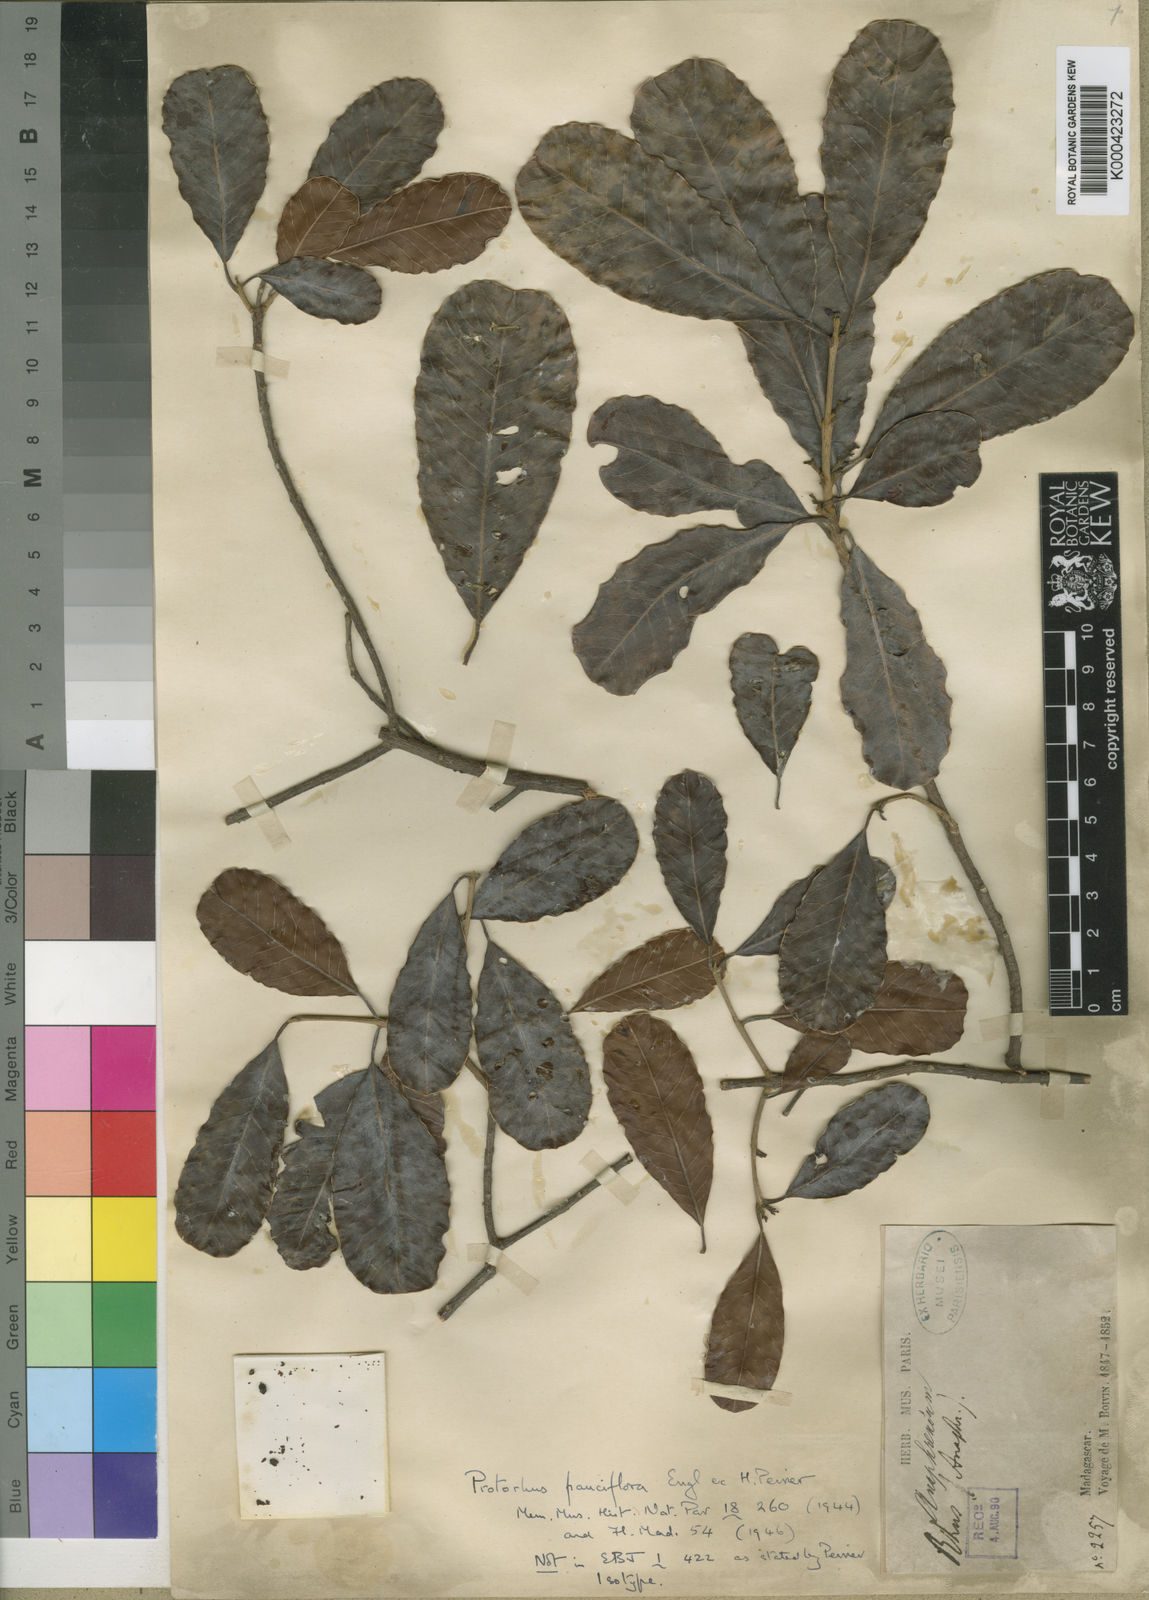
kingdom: Plantae
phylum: Tracheophyta
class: Magnoliopsida
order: Sapindales
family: Anacardiaceae
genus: Abrahamia
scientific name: Abrahamia pauciflora
